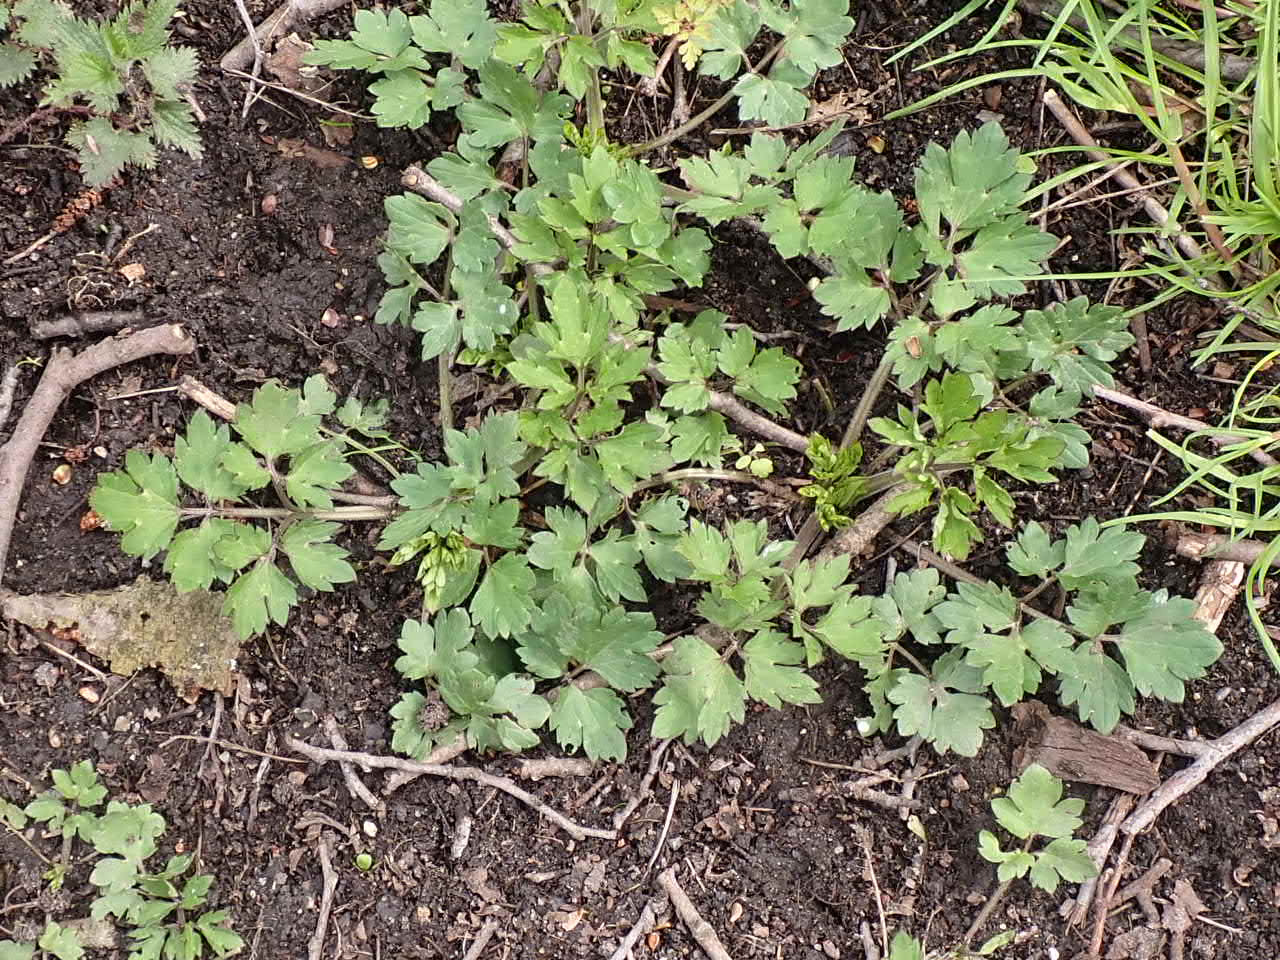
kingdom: Plantae
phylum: Tracheophyta
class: Magnoliopsida
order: Ranunculales
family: Ranunculaceae
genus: Ranunculus
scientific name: Ranunculus repens
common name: Lav ranunkel
